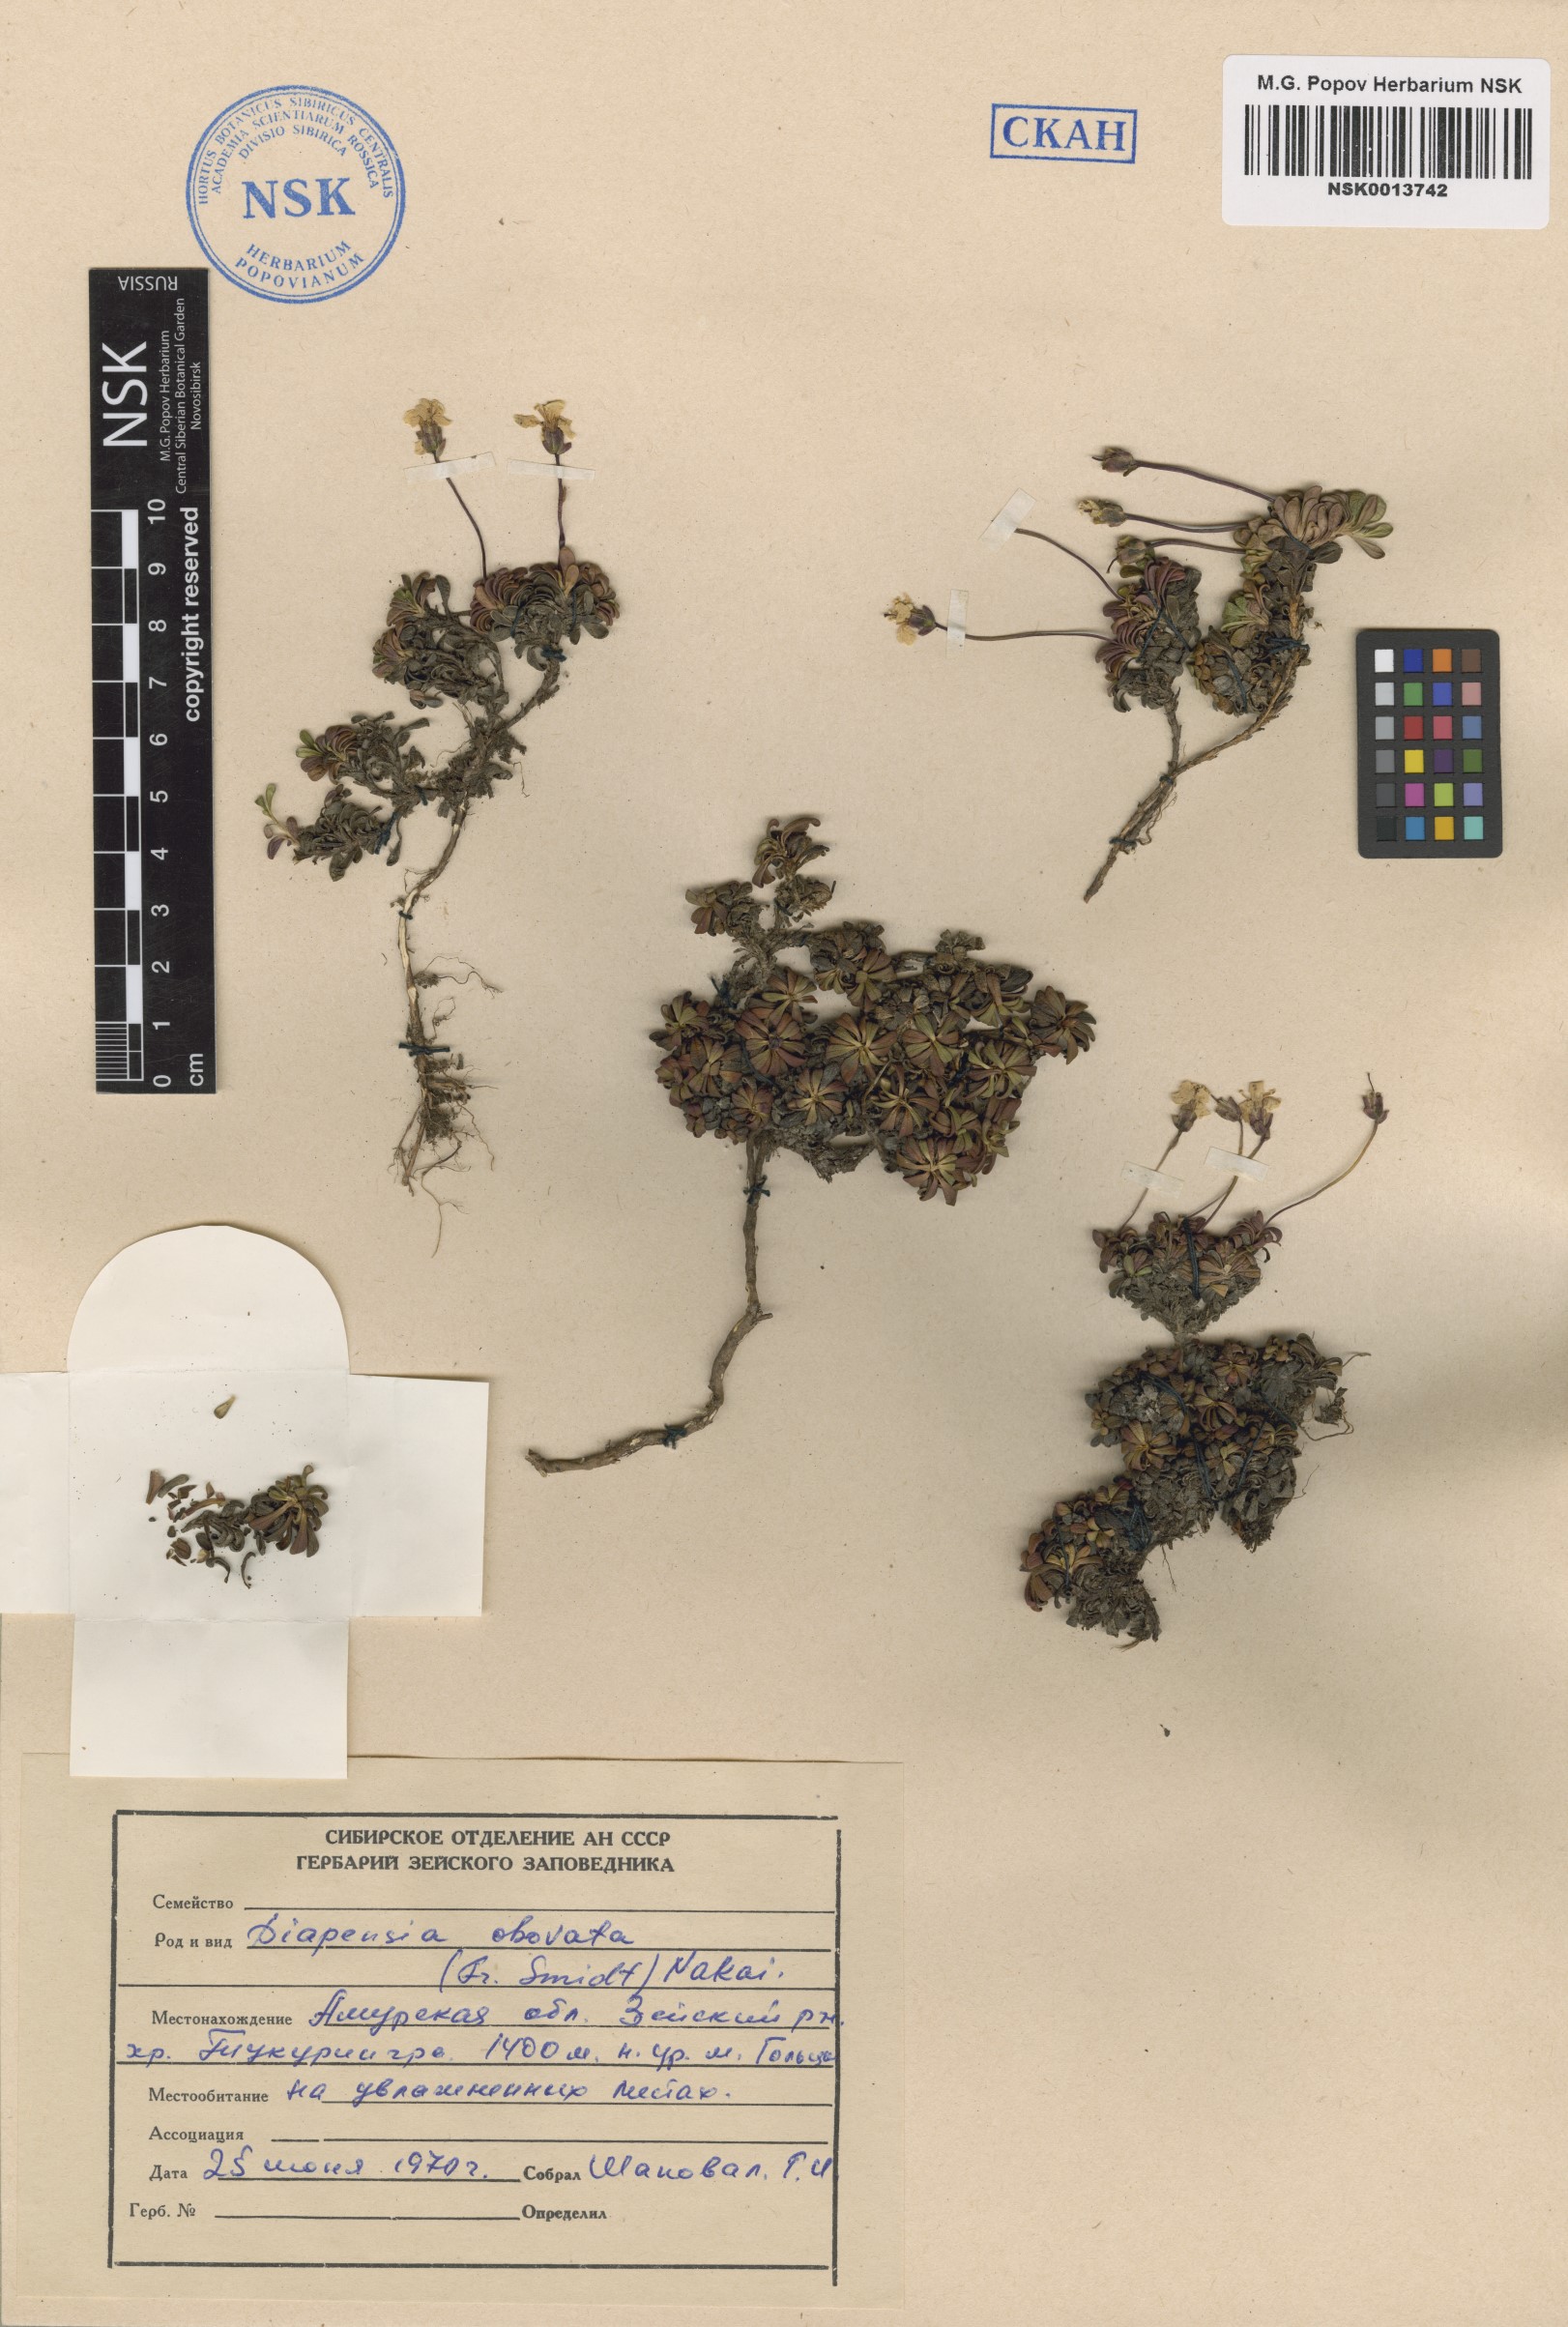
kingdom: Plantae
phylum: Tracheophyta
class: Magnoliopsida
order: Ericales
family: Diapensiaceae
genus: Diapensia
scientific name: Diapensia obovata
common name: Alaska diapensia
